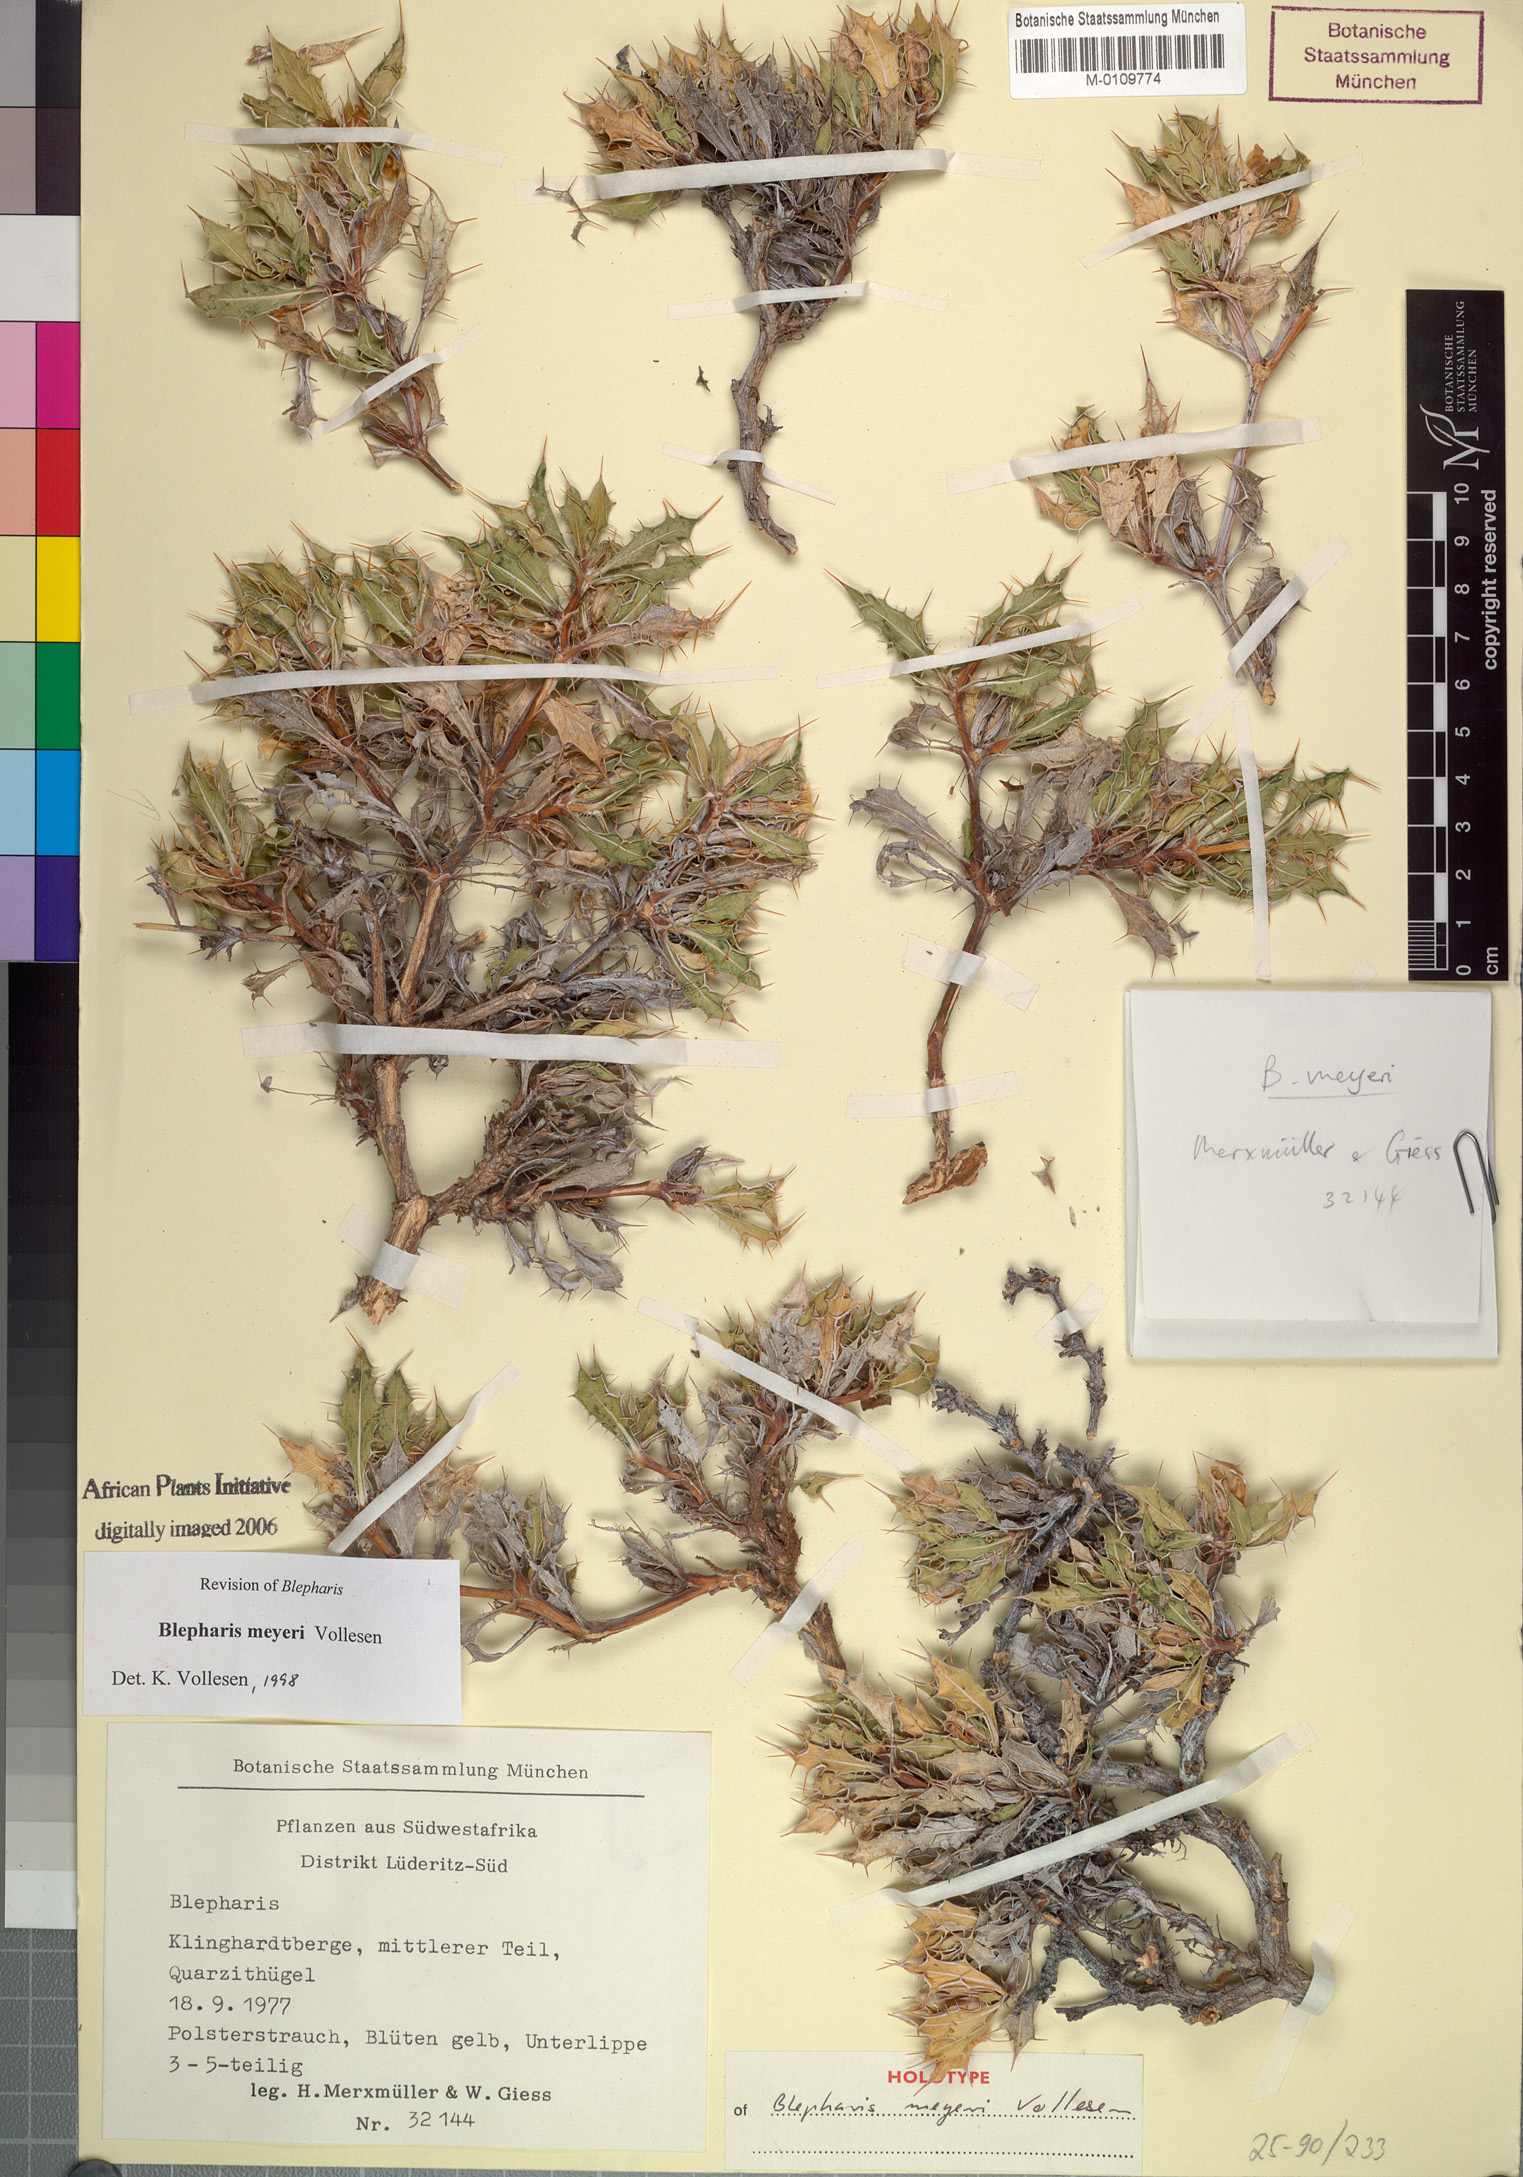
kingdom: Plantae
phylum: Tracheophyta
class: Magnoliopsida
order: Lamiales
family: Acanthaceae
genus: Blepharis
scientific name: Blepharis meyeri
